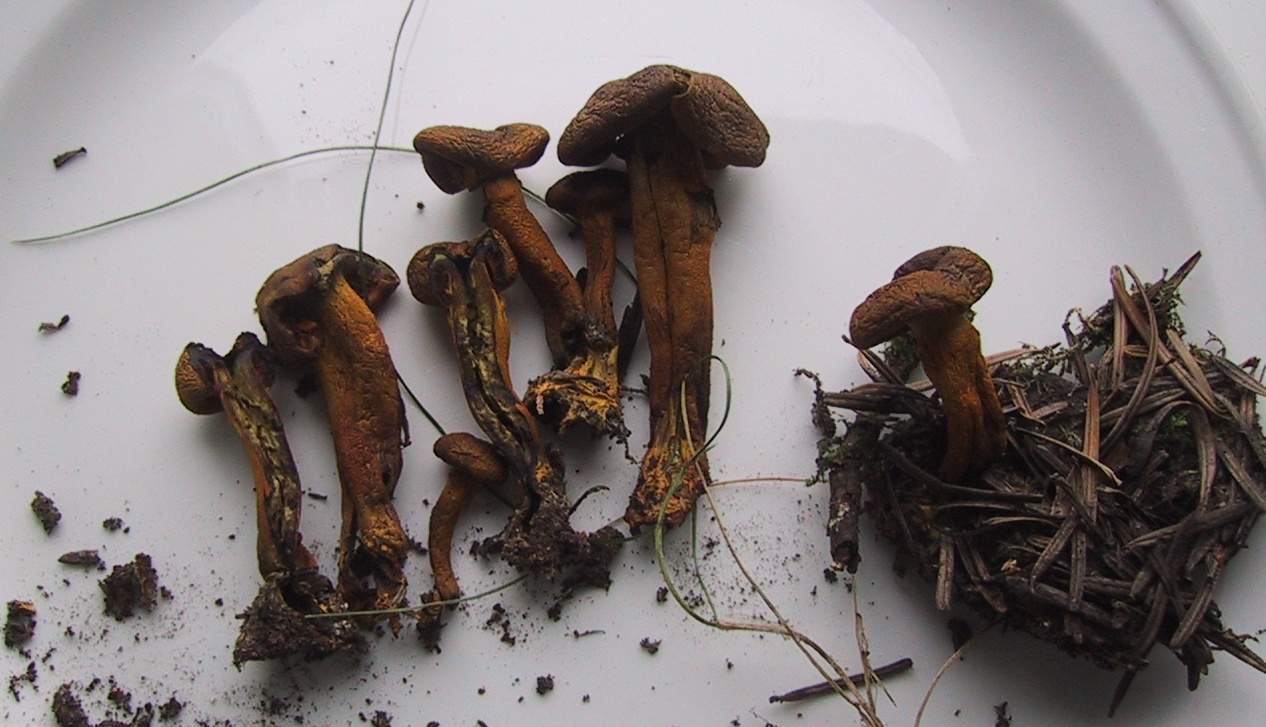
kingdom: Fungi
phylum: Basidiomycota
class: Agaricomycetes
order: Agaricales
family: Cortinariaceae
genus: Cortinarius
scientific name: Cortinarius malicorius
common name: grønkødet slørhat
